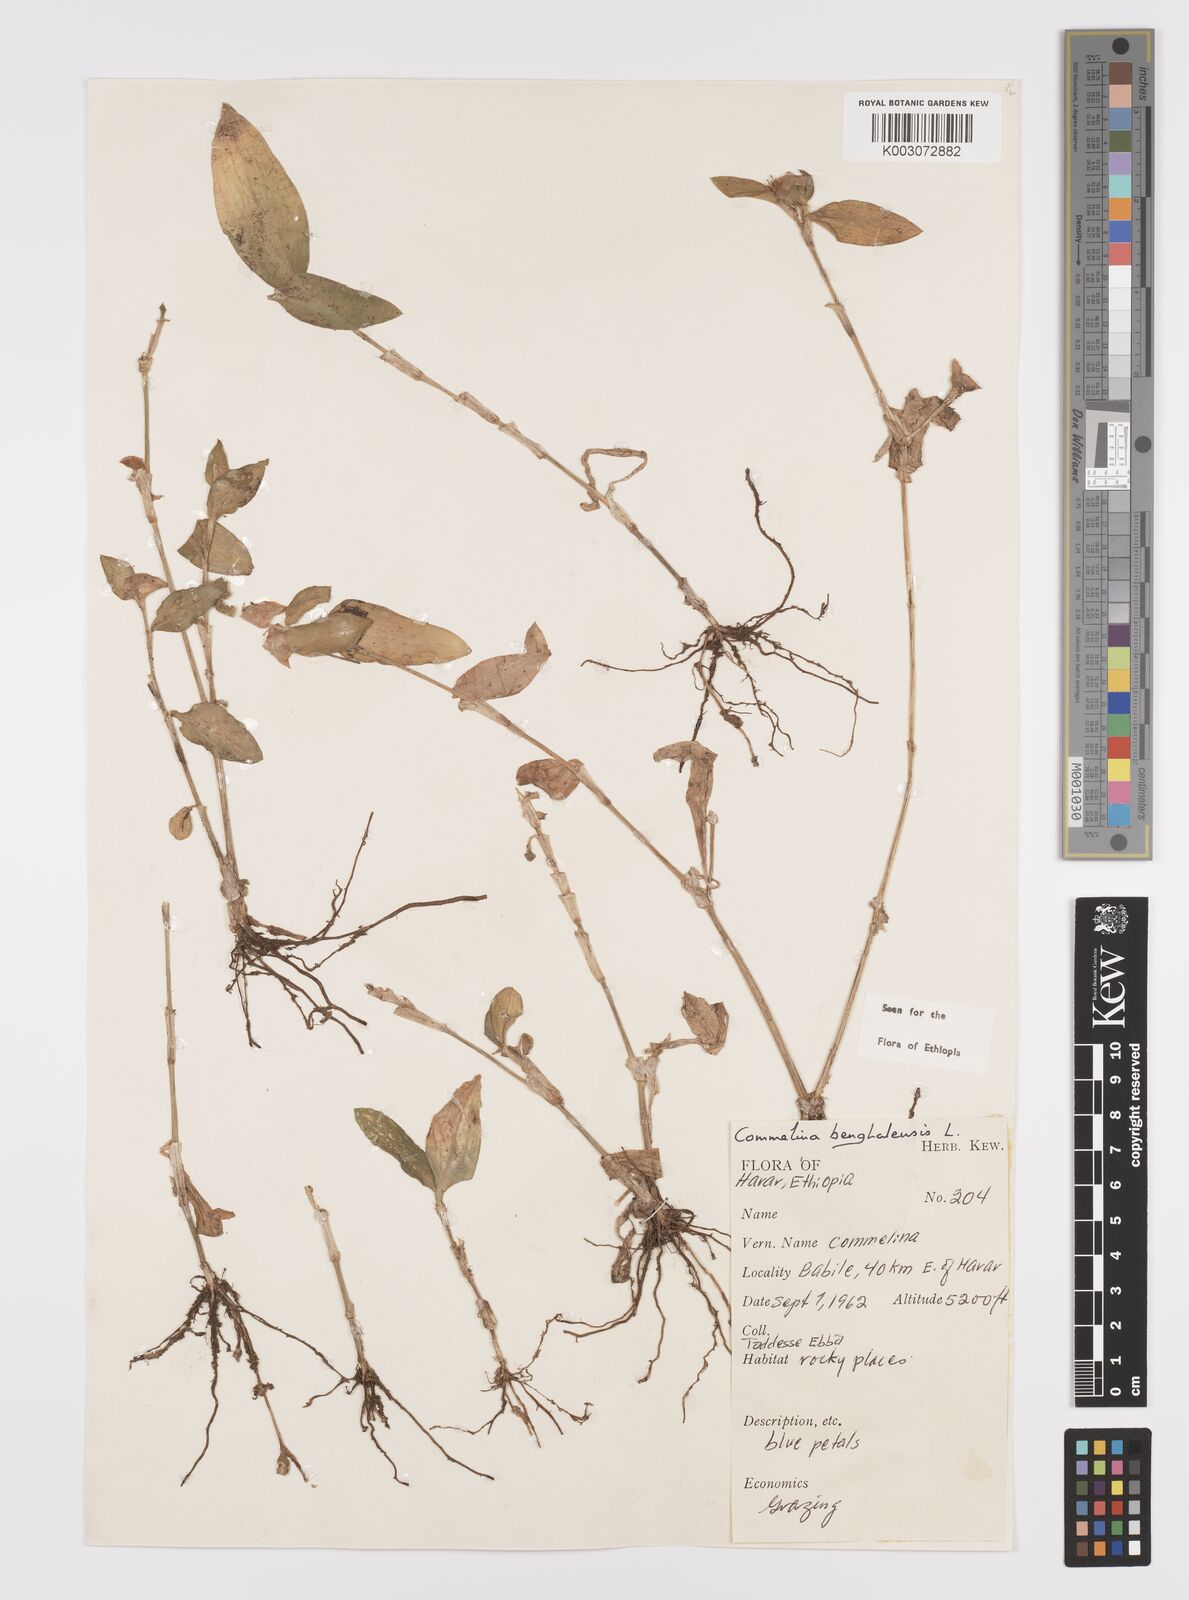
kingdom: Plantae
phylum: Tracheophyta
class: Liliopsida
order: Commelinales
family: Commelinaceae
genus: Commelina
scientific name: Commelina benghalensis
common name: Jio
